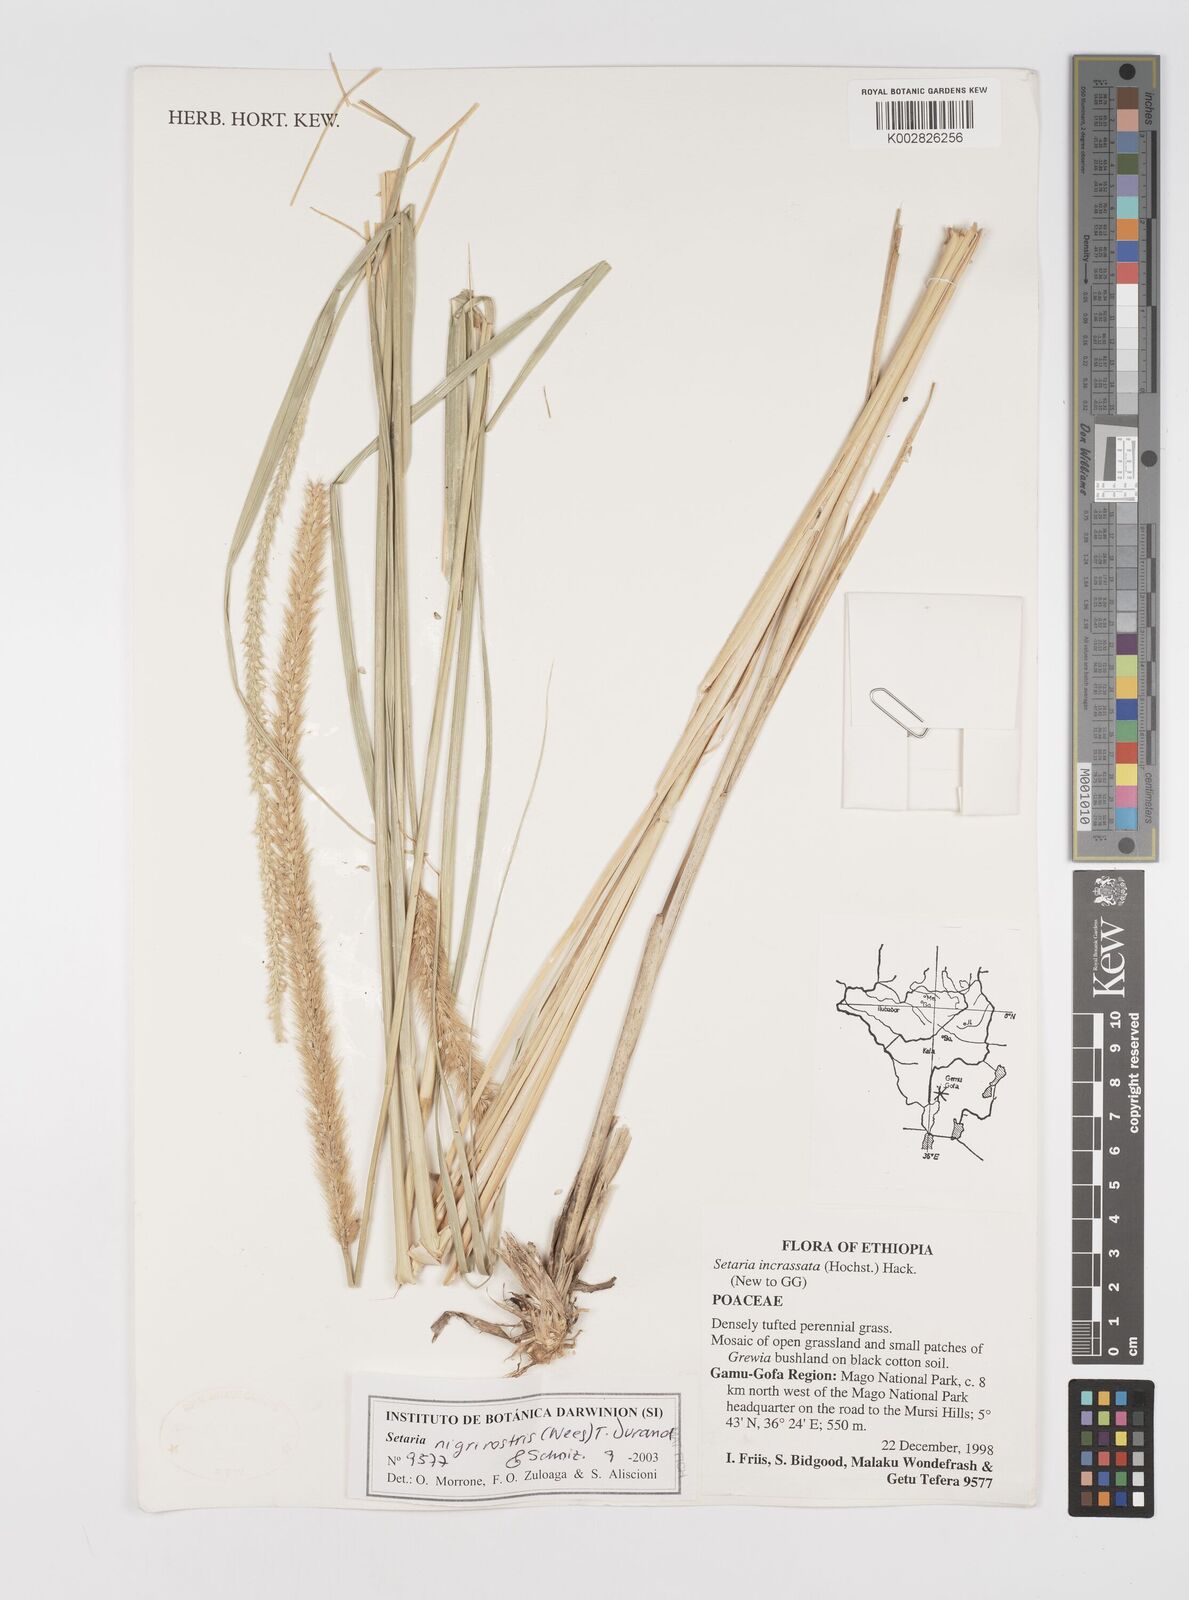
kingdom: Plantae
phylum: Tracheophyta
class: Liliopsida
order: Poales
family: Poaceae
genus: Setaria
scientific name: Setaria nigrirostris
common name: Black bristlegrass
